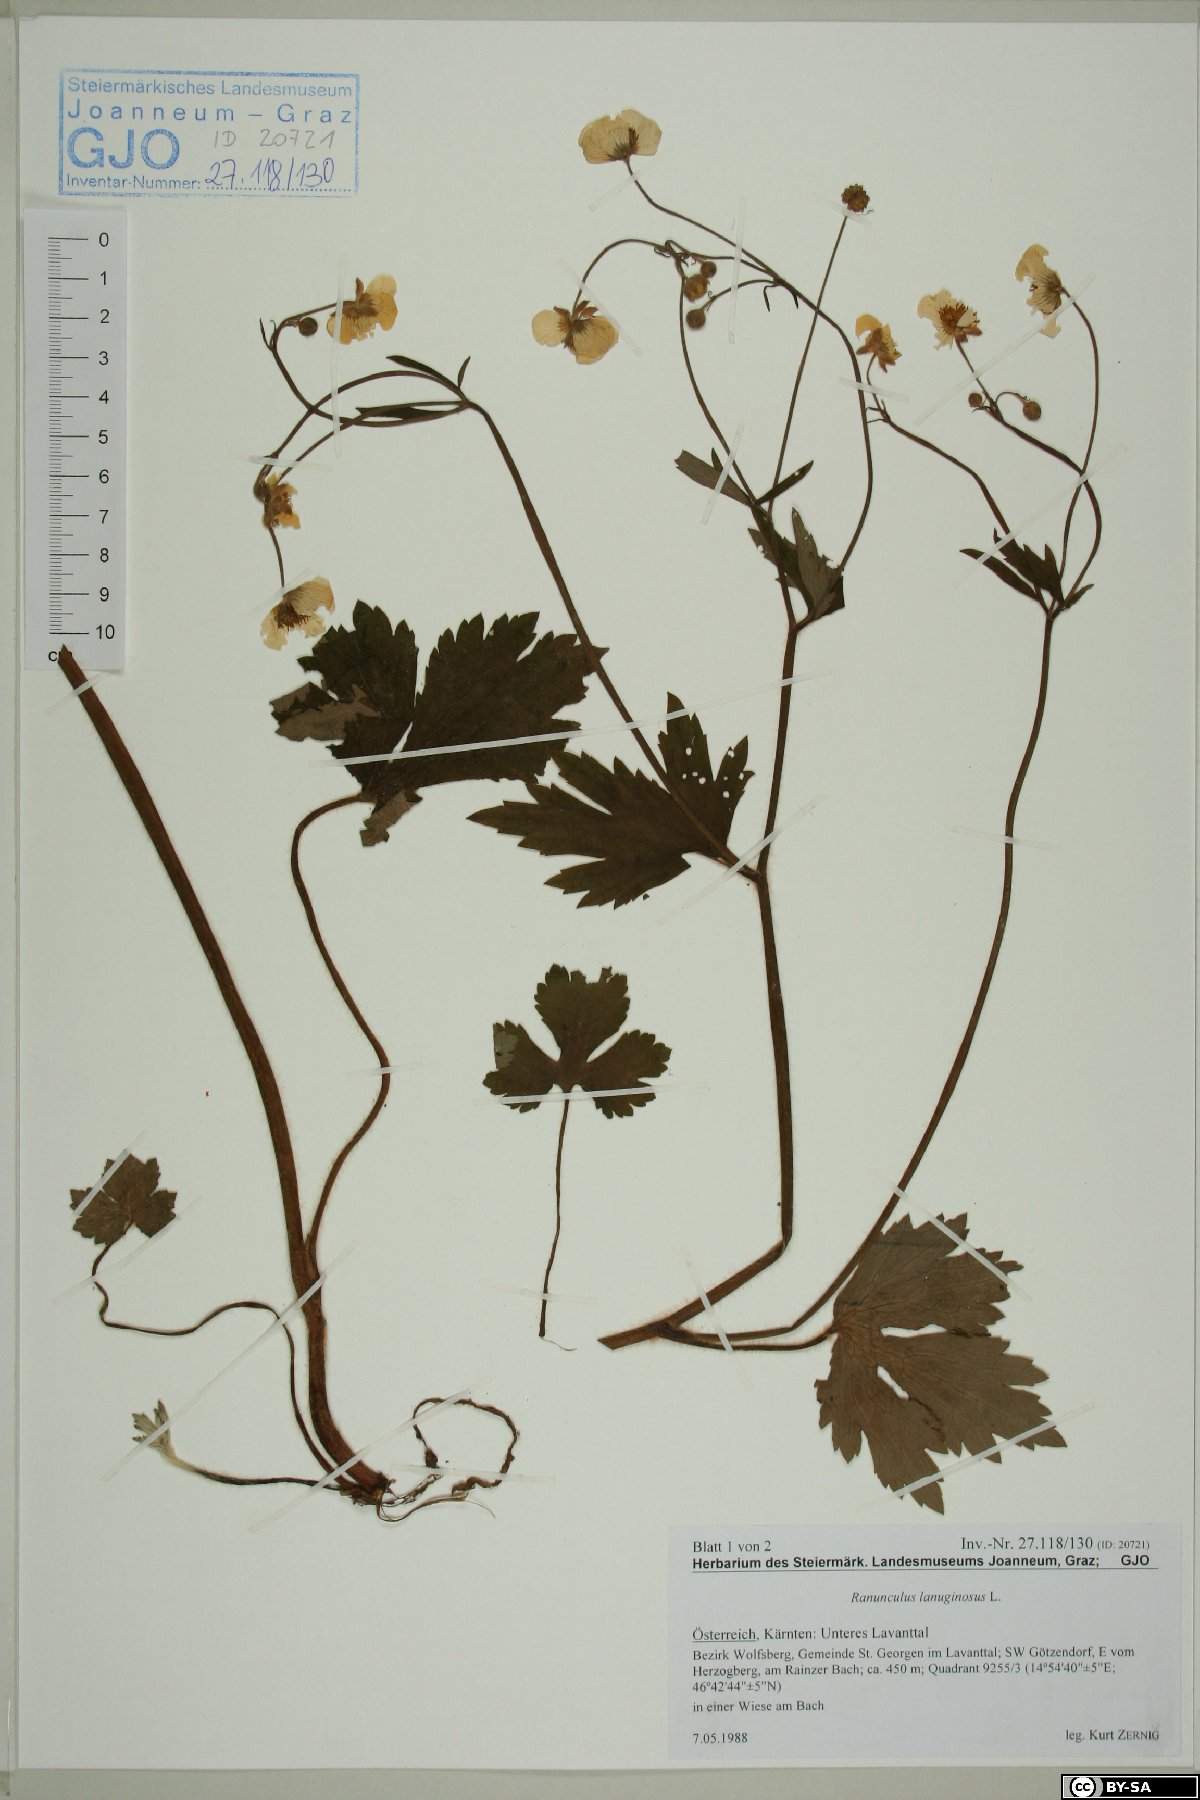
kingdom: Plantae
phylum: Tracheophyta
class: Magnoliopsida
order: Ranunculales
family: Ranunculaceae
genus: Ranunculus
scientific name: Ranunculus lanuginosus
